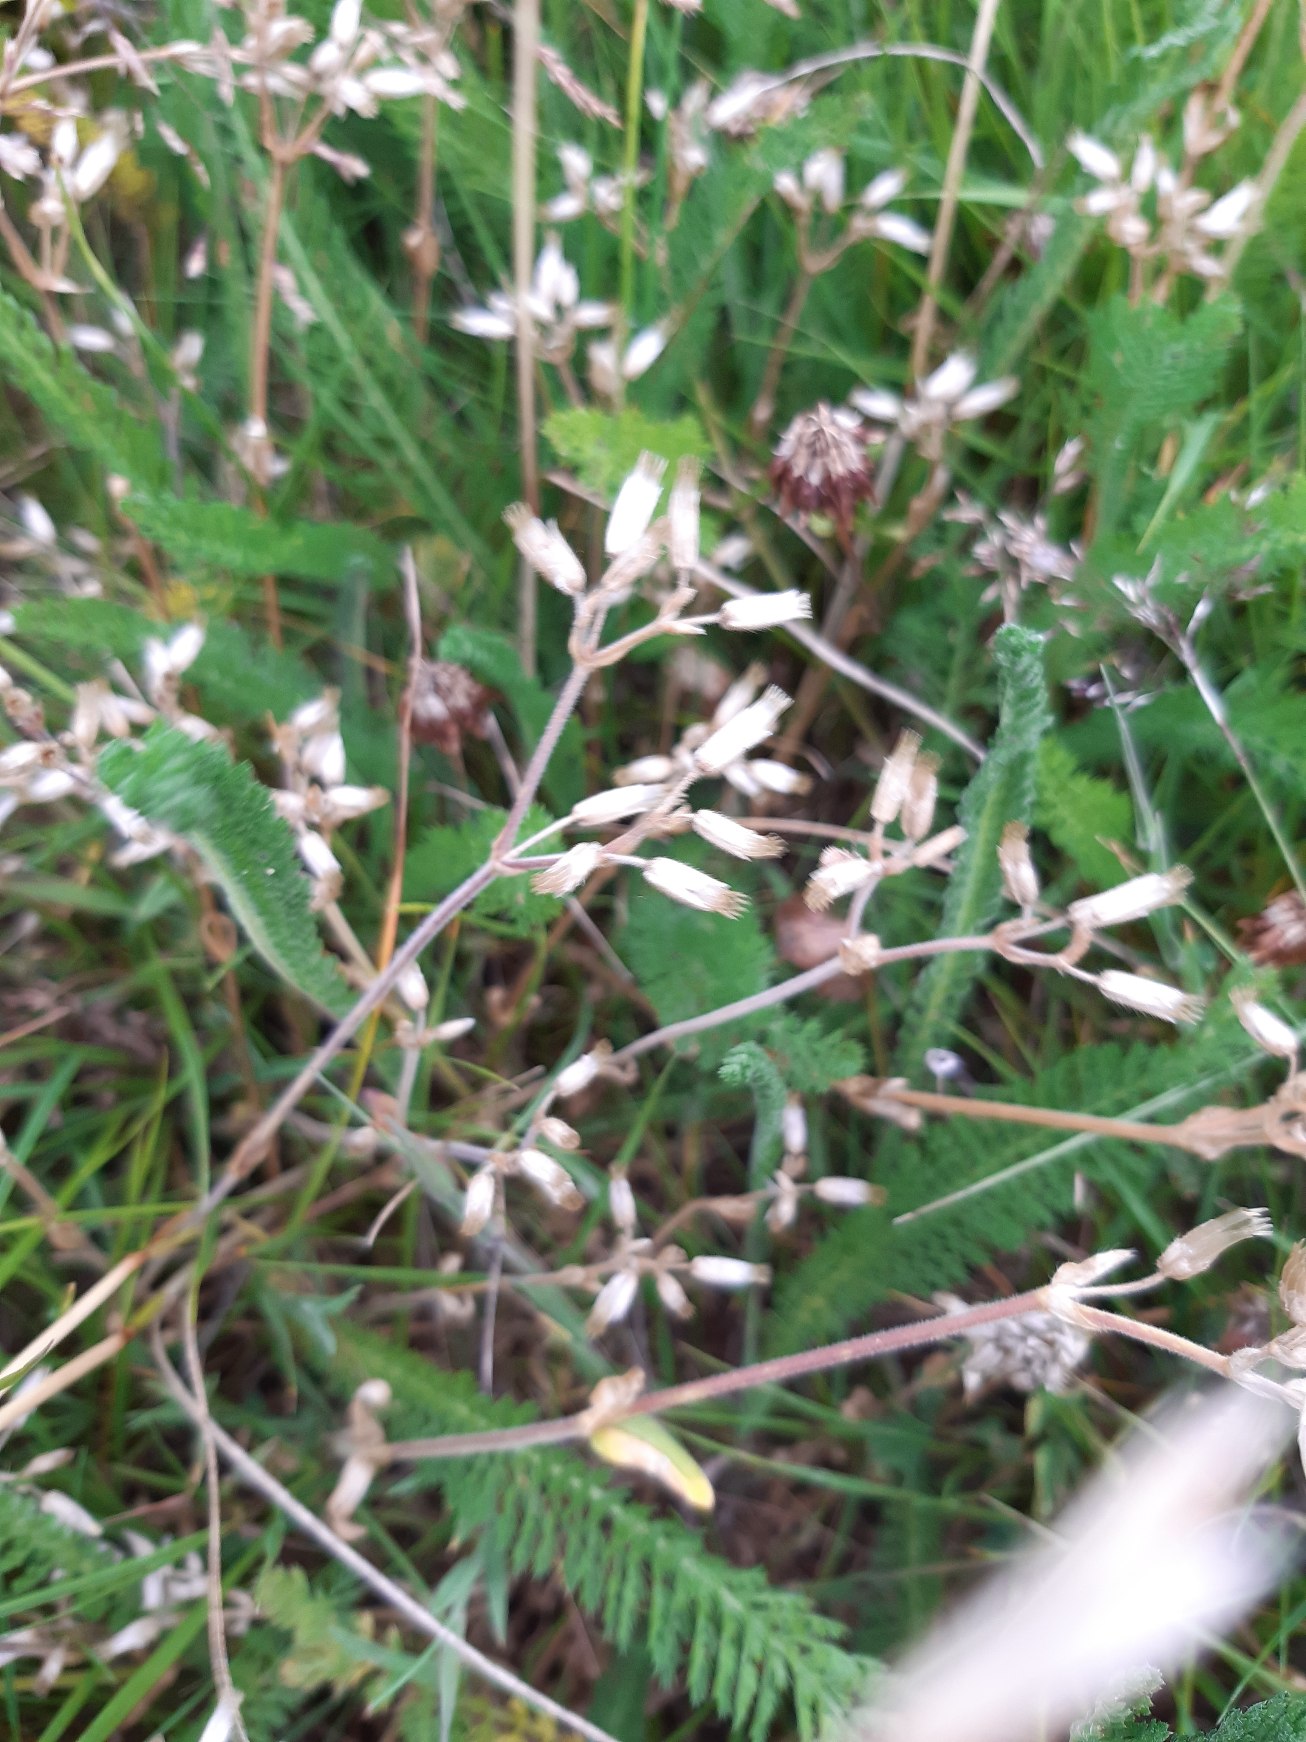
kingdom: Plantae
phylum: Tracheophyta
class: Magnoliopsida
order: Caryophyllales
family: Caryophyllaceae
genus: Cerastium
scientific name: Cerastium fontanum
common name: Almindelig hønsetarm
